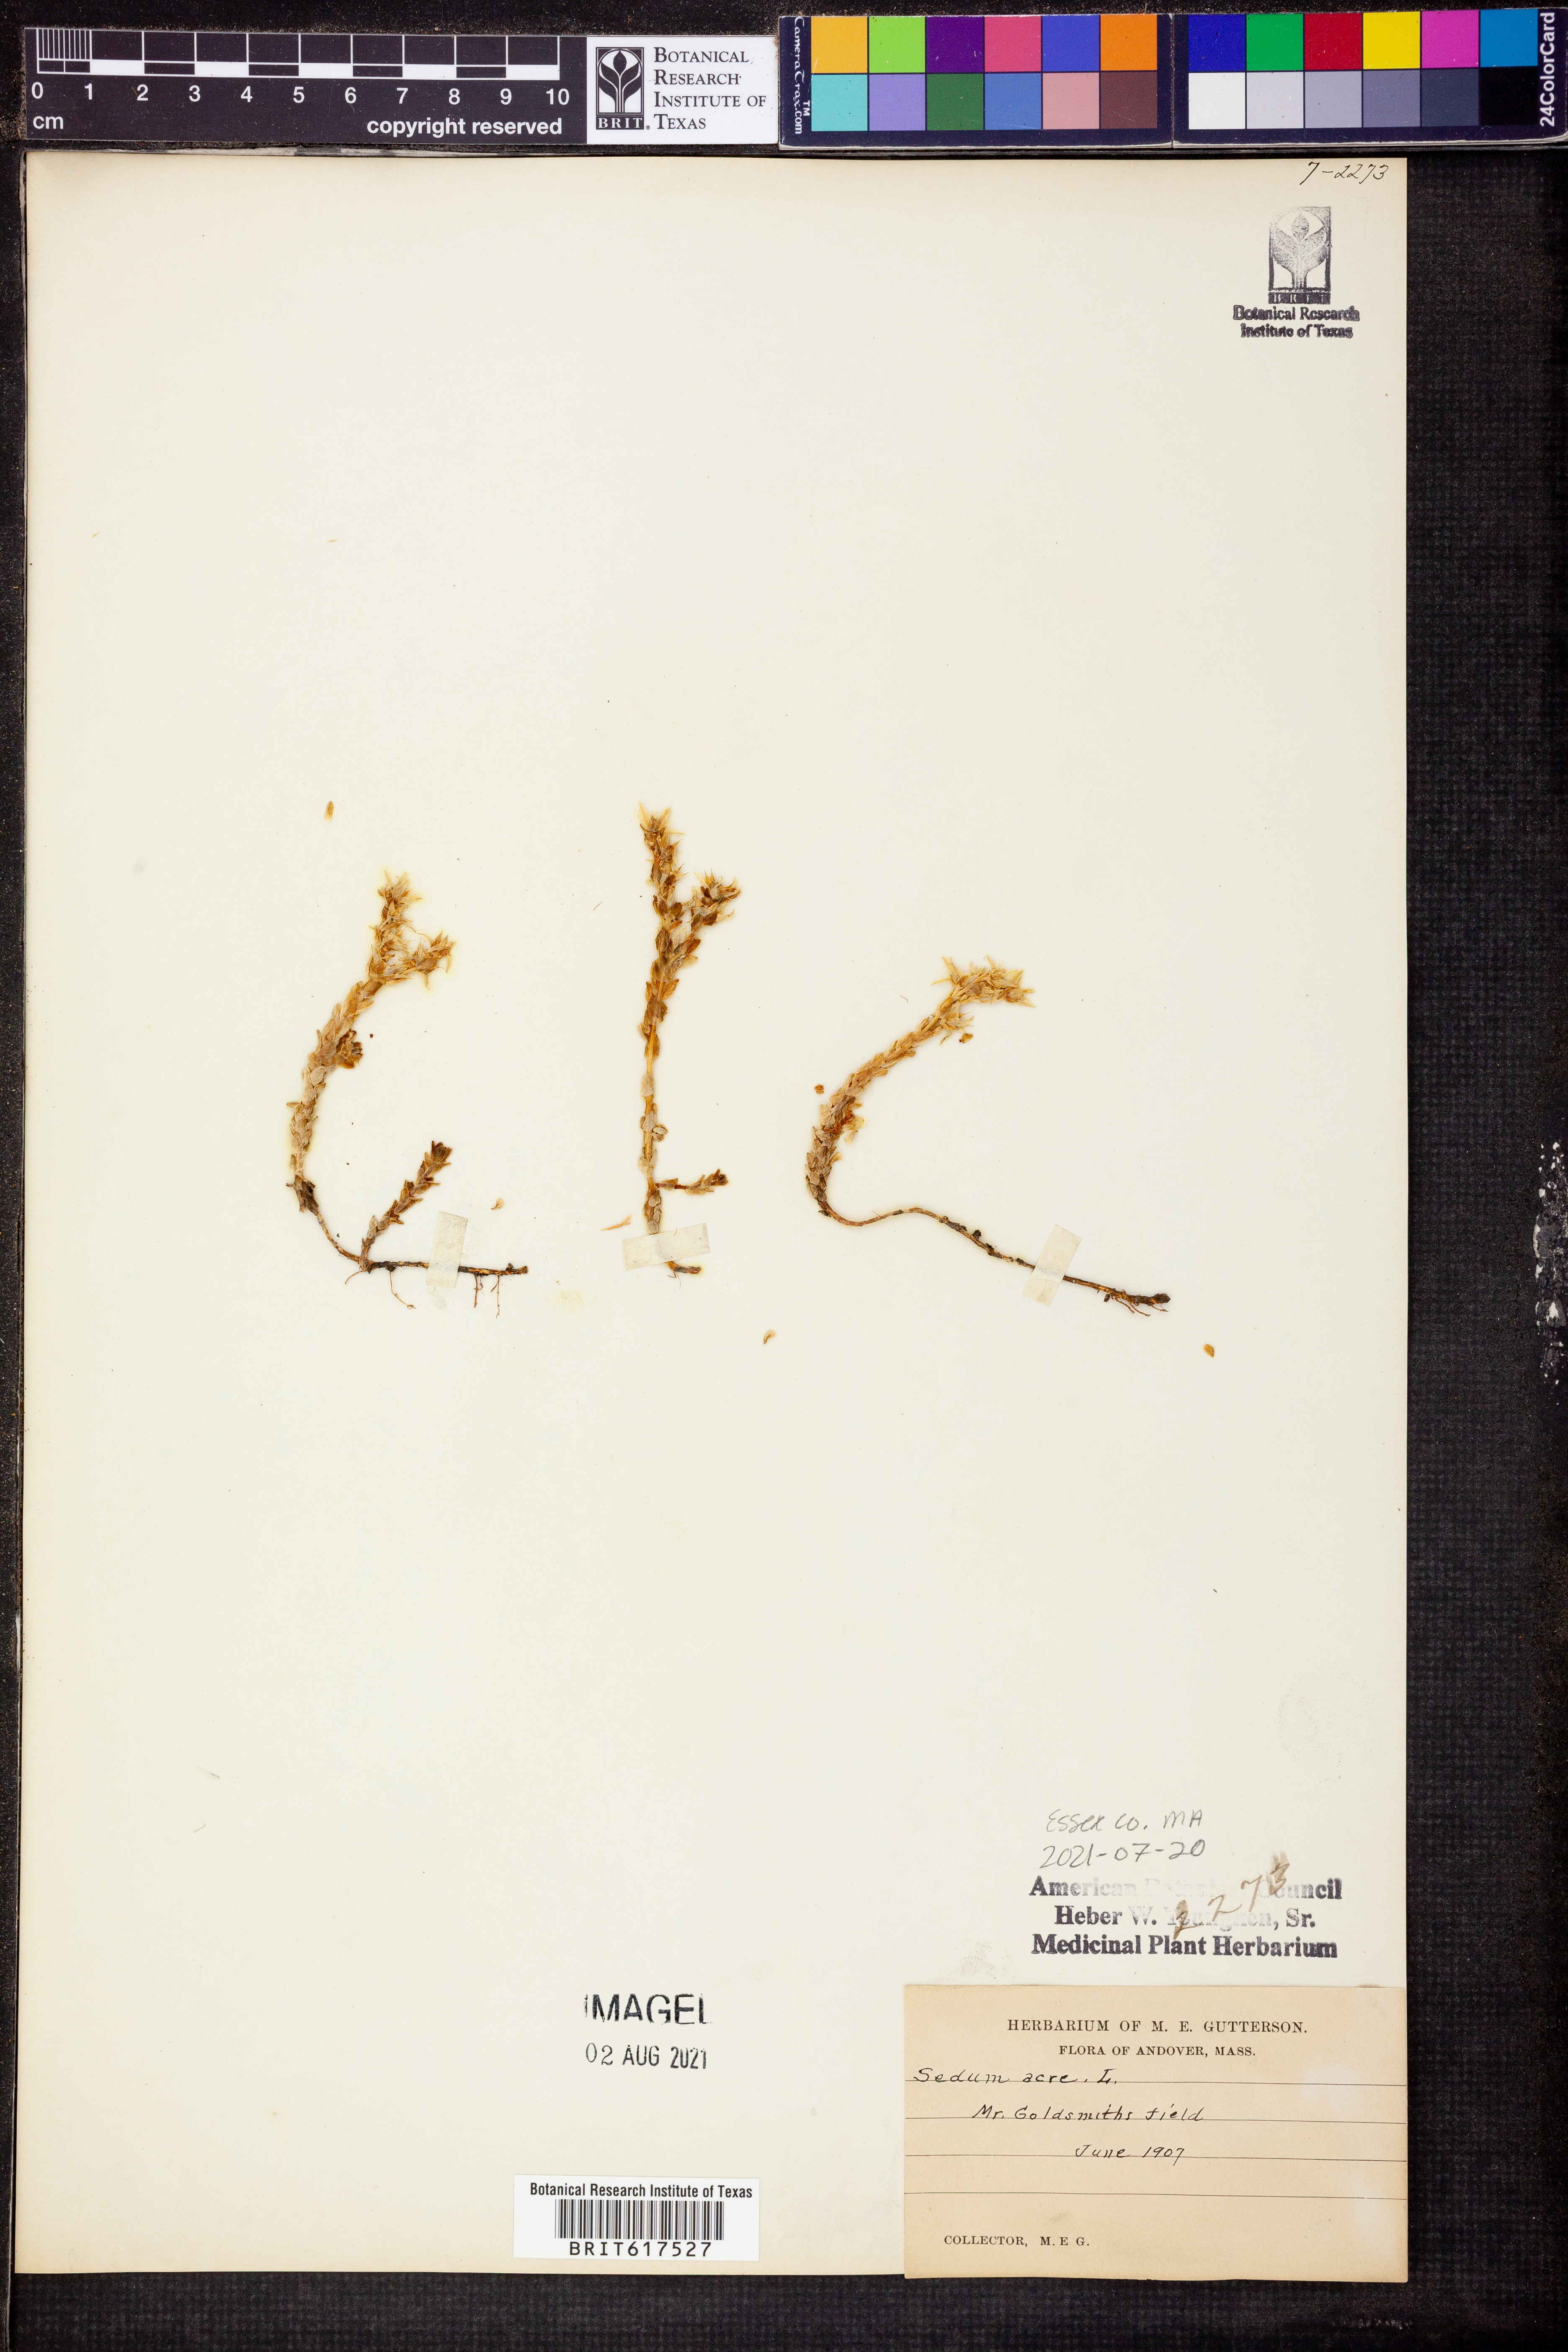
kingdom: Plantae
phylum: Tracheophyta
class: Magnoliopsida
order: Saxifragales
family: Crassulaceae
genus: Sedum
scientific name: Sedum acre
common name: Biting stonecrop
